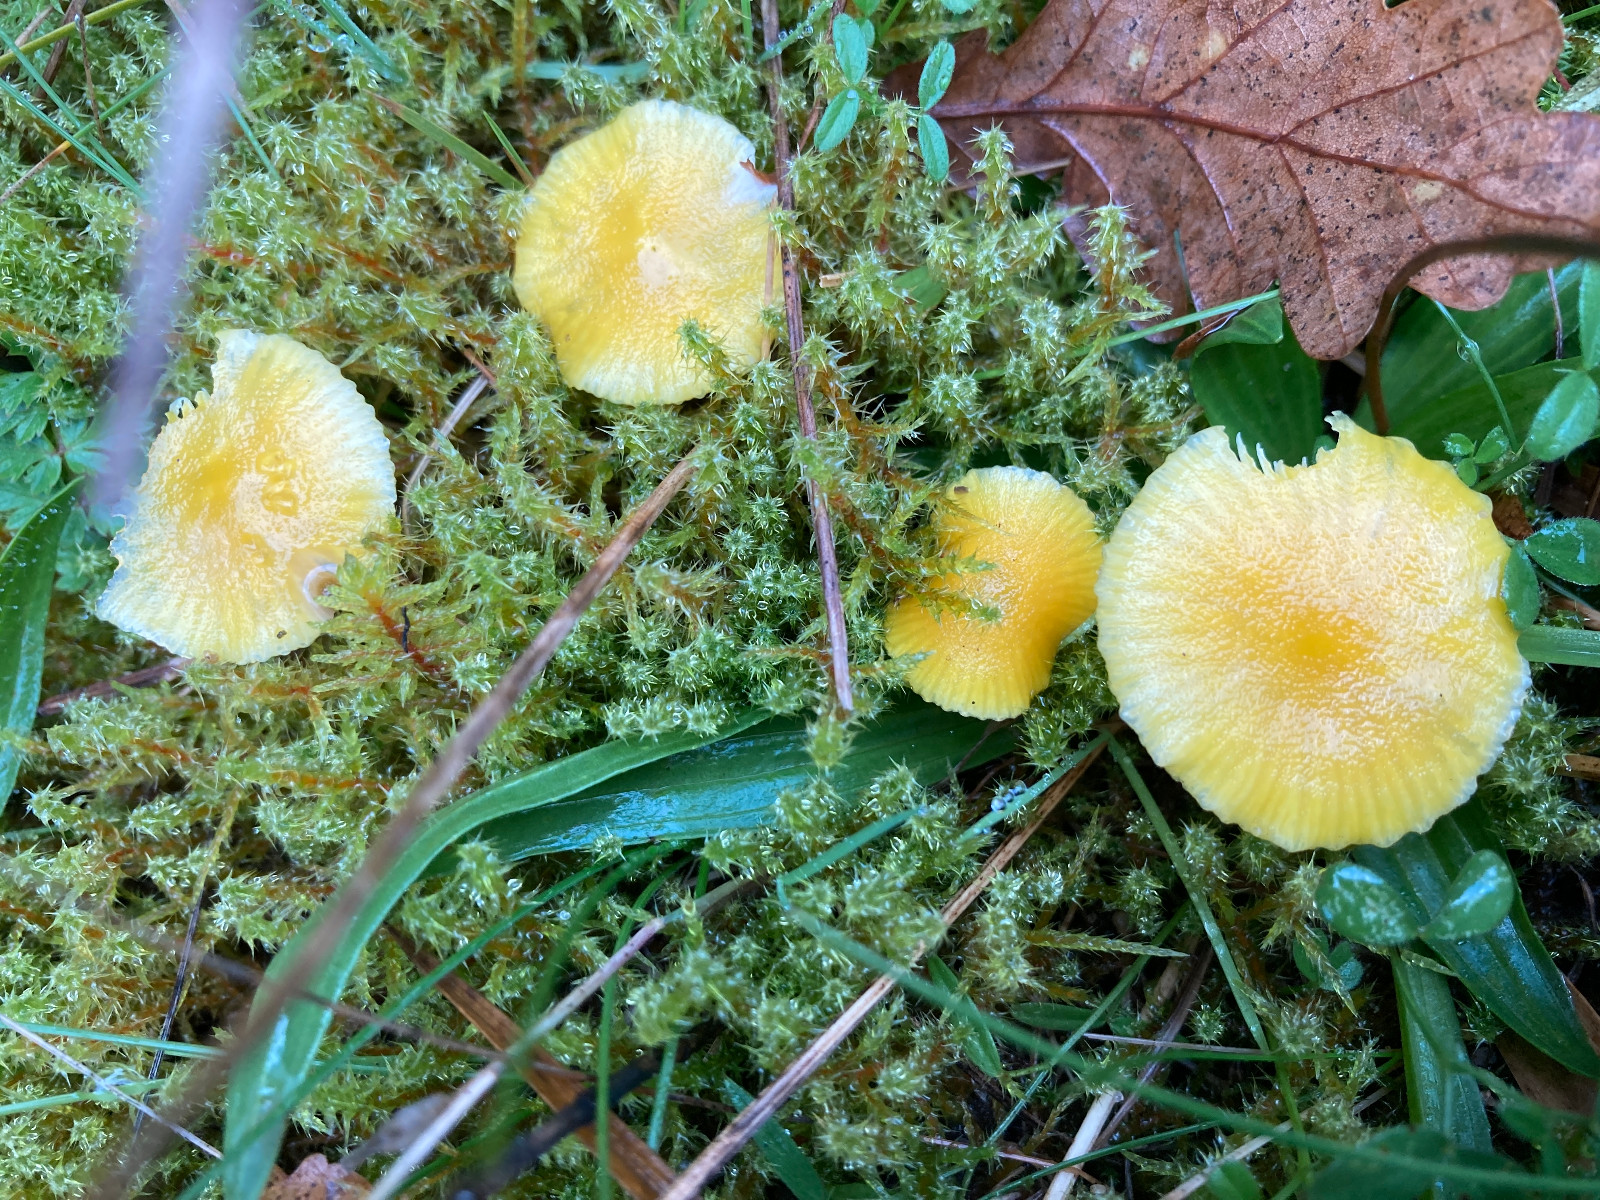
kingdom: Fungi
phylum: Basidiomycota
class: Agaricomycetes
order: Agaricales
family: Hygrophoraceae
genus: Hygrocybe
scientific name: Hygrocybe ceracea
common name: voksgul vokshat
